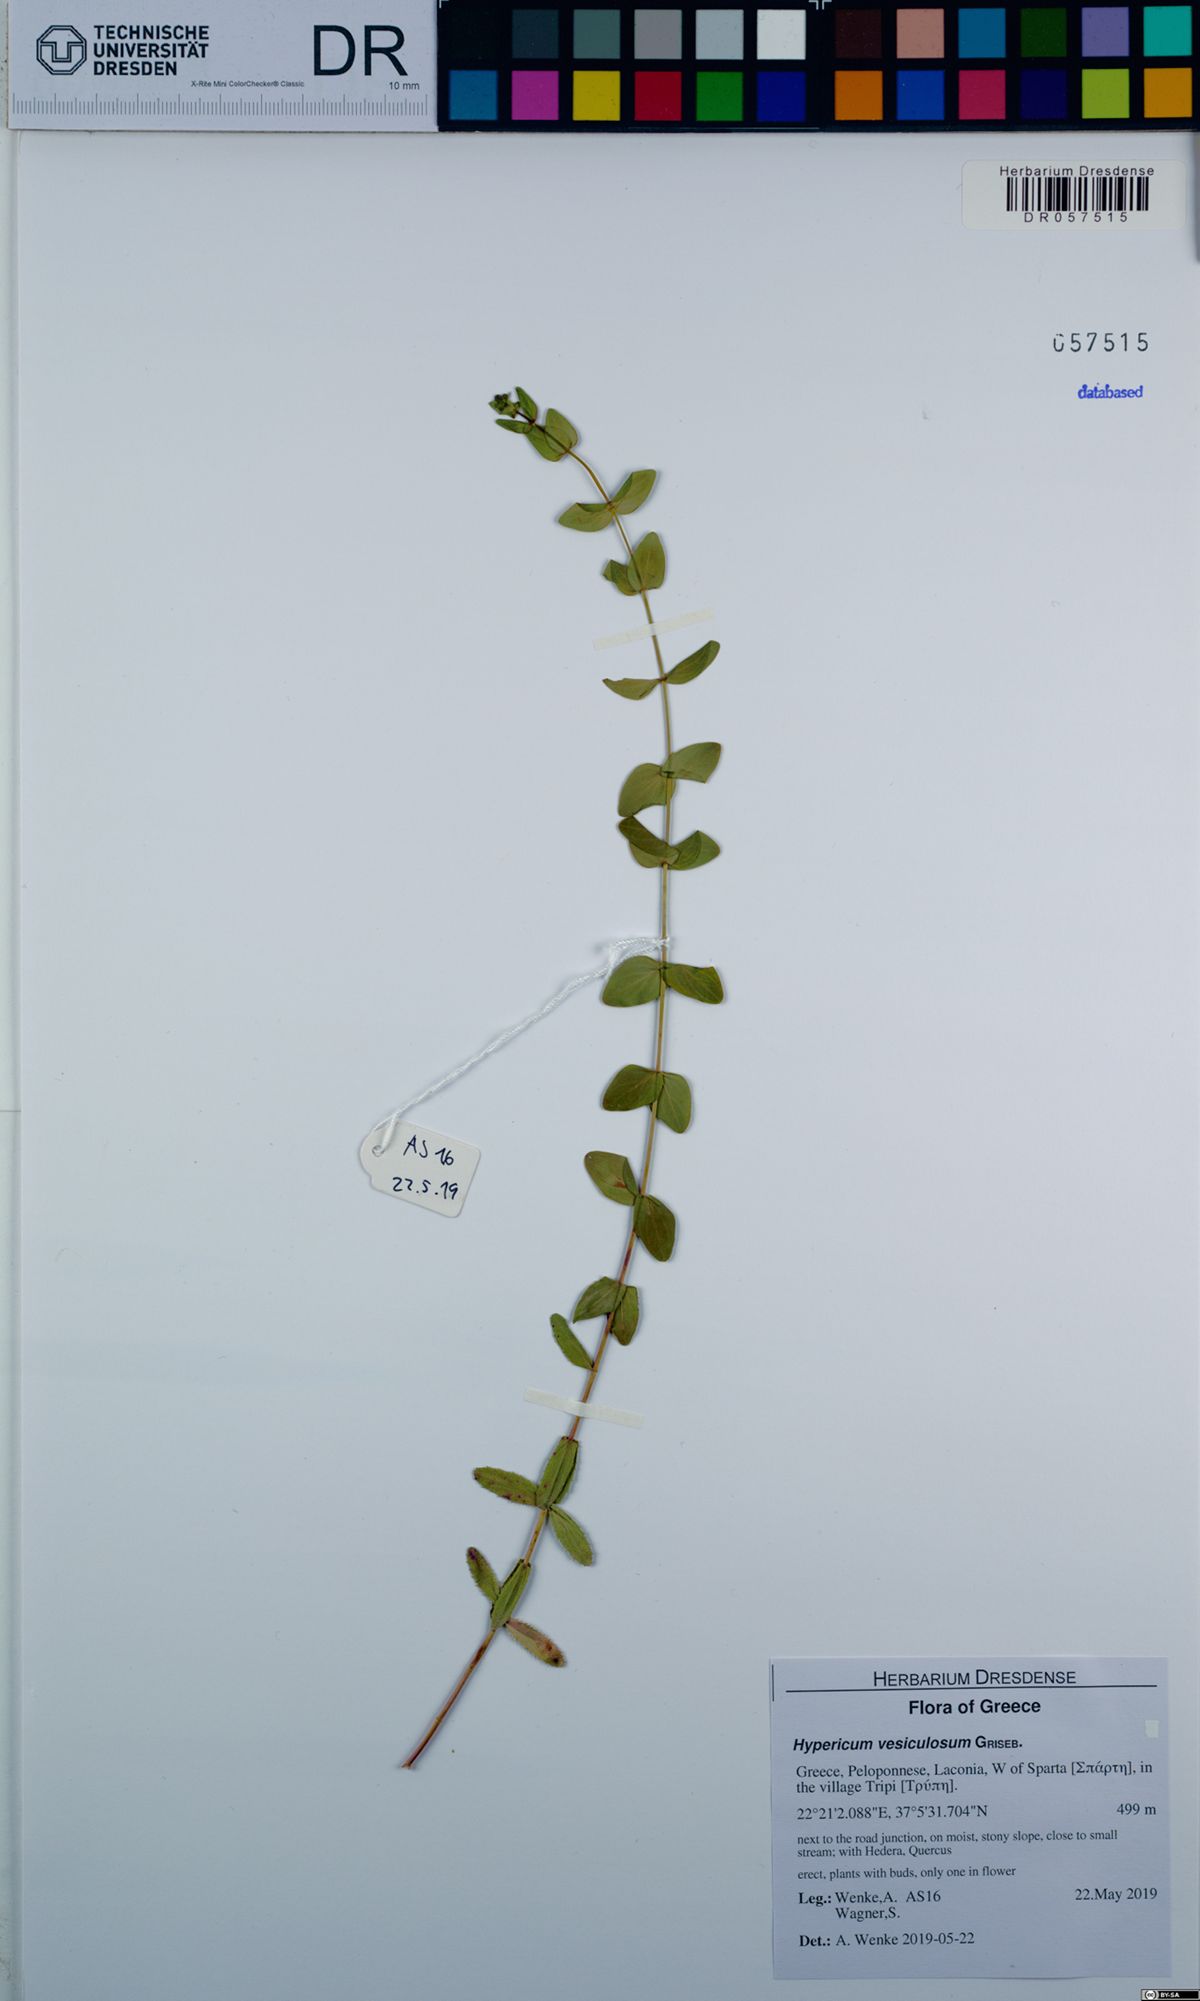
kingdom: Plantae
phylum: Tracheophyta
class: Magnoliopsida
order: Malpighiales
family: Hypericaceae
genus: Hypericum
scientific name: Hypericum vesiculosum
